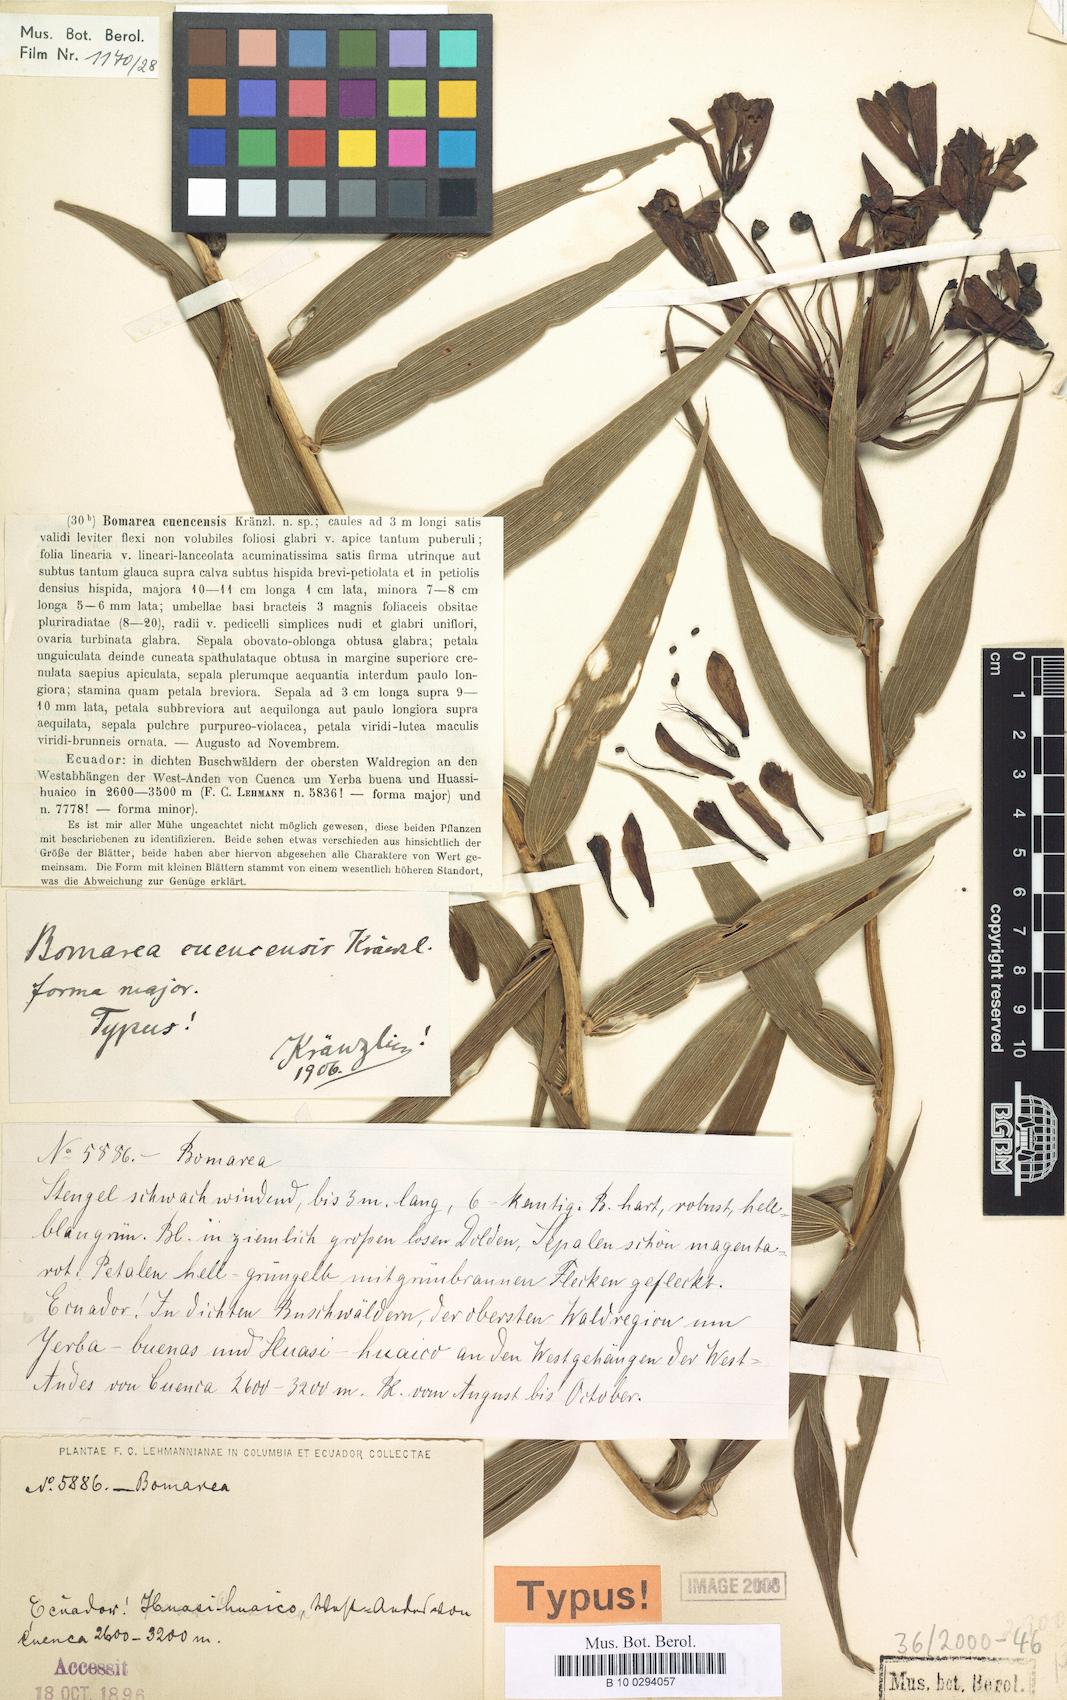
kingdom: Plantae
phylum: Tracheophyta
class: Liliopsida
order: Liliales
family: Alstroemeriaceae
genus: Bomarea
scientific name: Bomarea angulata
